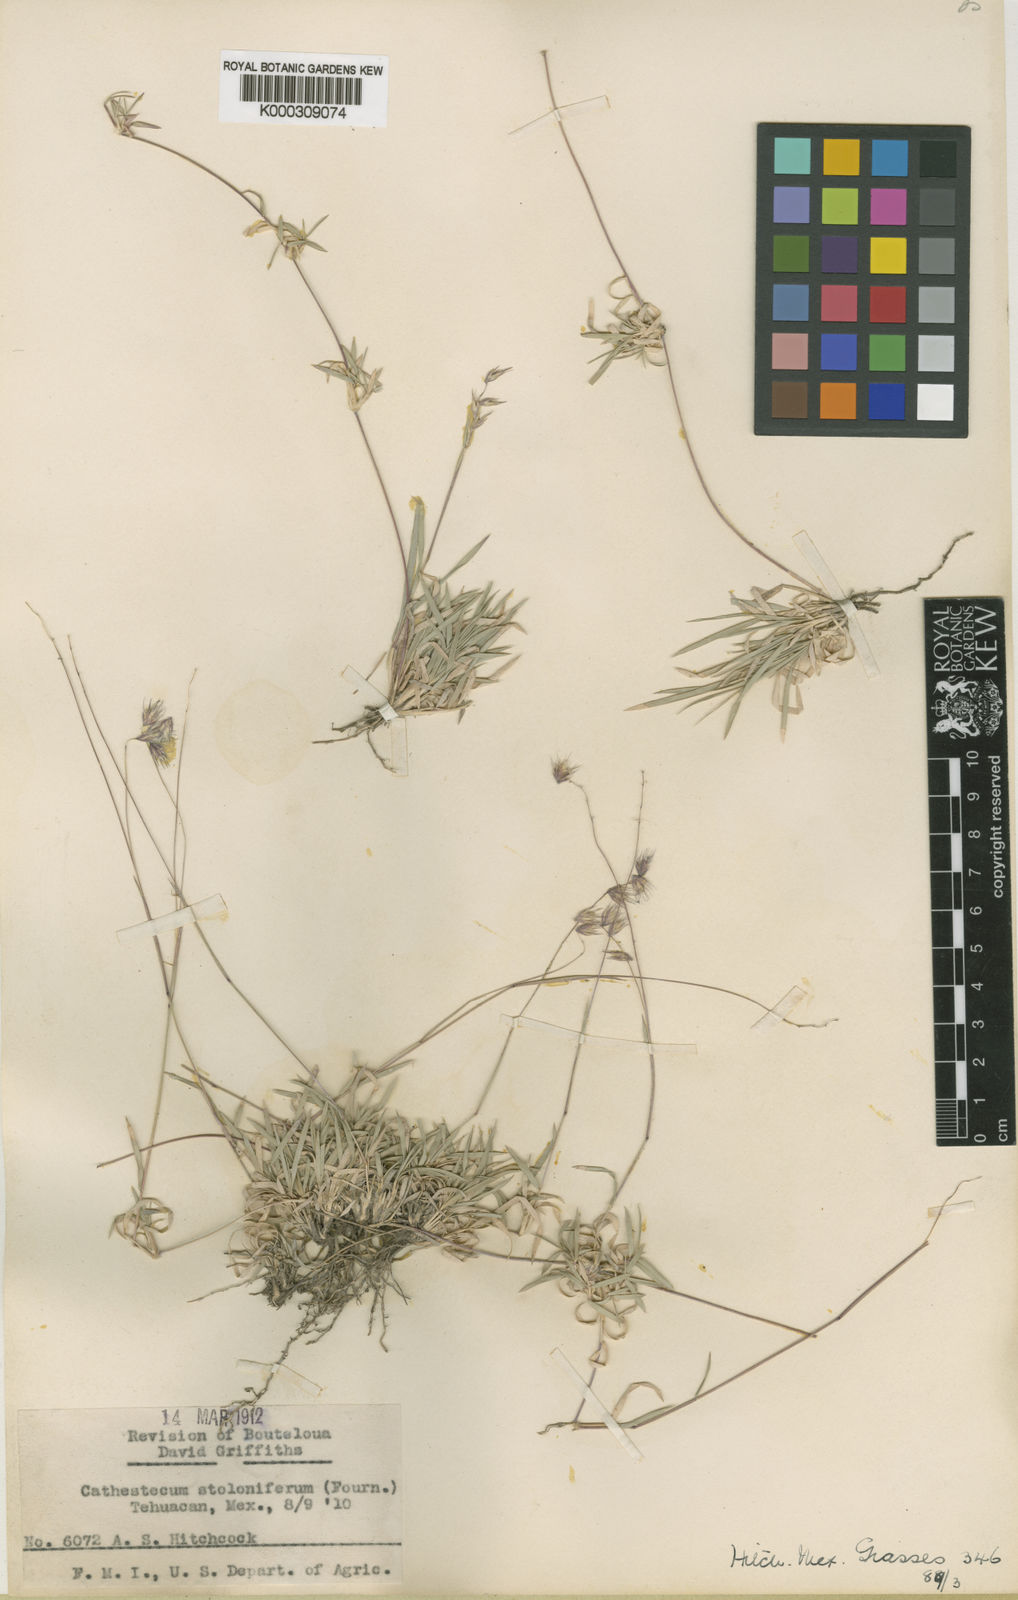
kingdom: Plantae
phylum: Tracheophyta
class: Liliopsida
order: Poales
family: Poaceae
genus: Bouteloua
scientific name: Bouteloua varia
